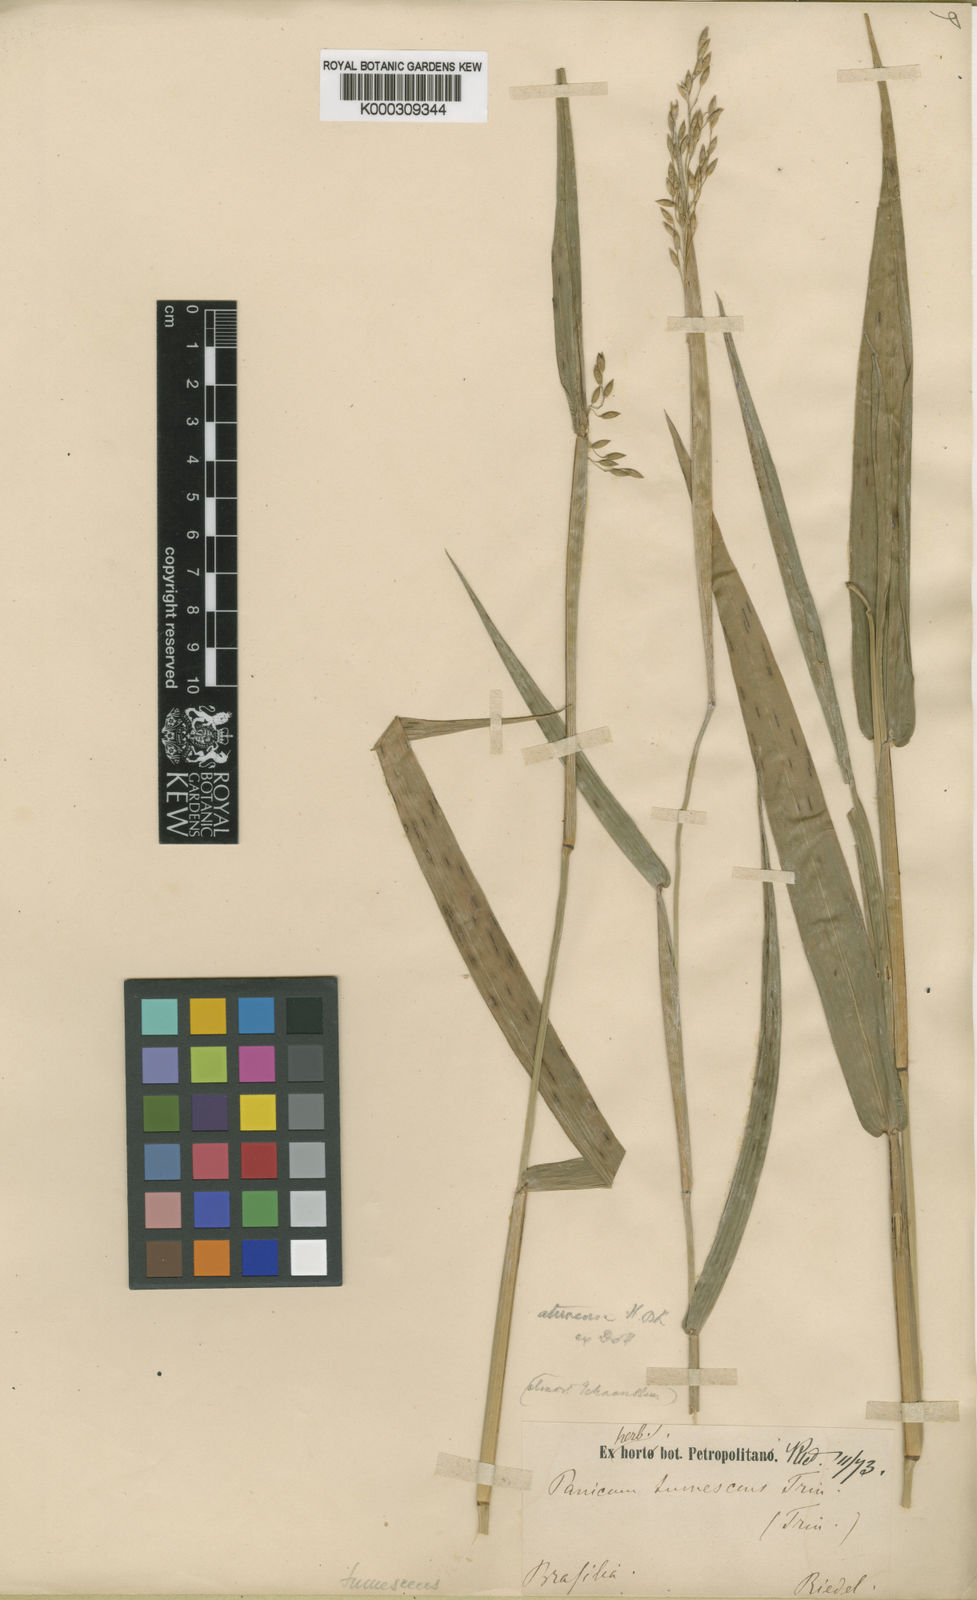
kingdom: Plantae
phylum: Tracheophyta
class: Liliopsida
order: Poales
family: Poaceae
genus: Homolepis
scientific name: Homolepis isocalycina
